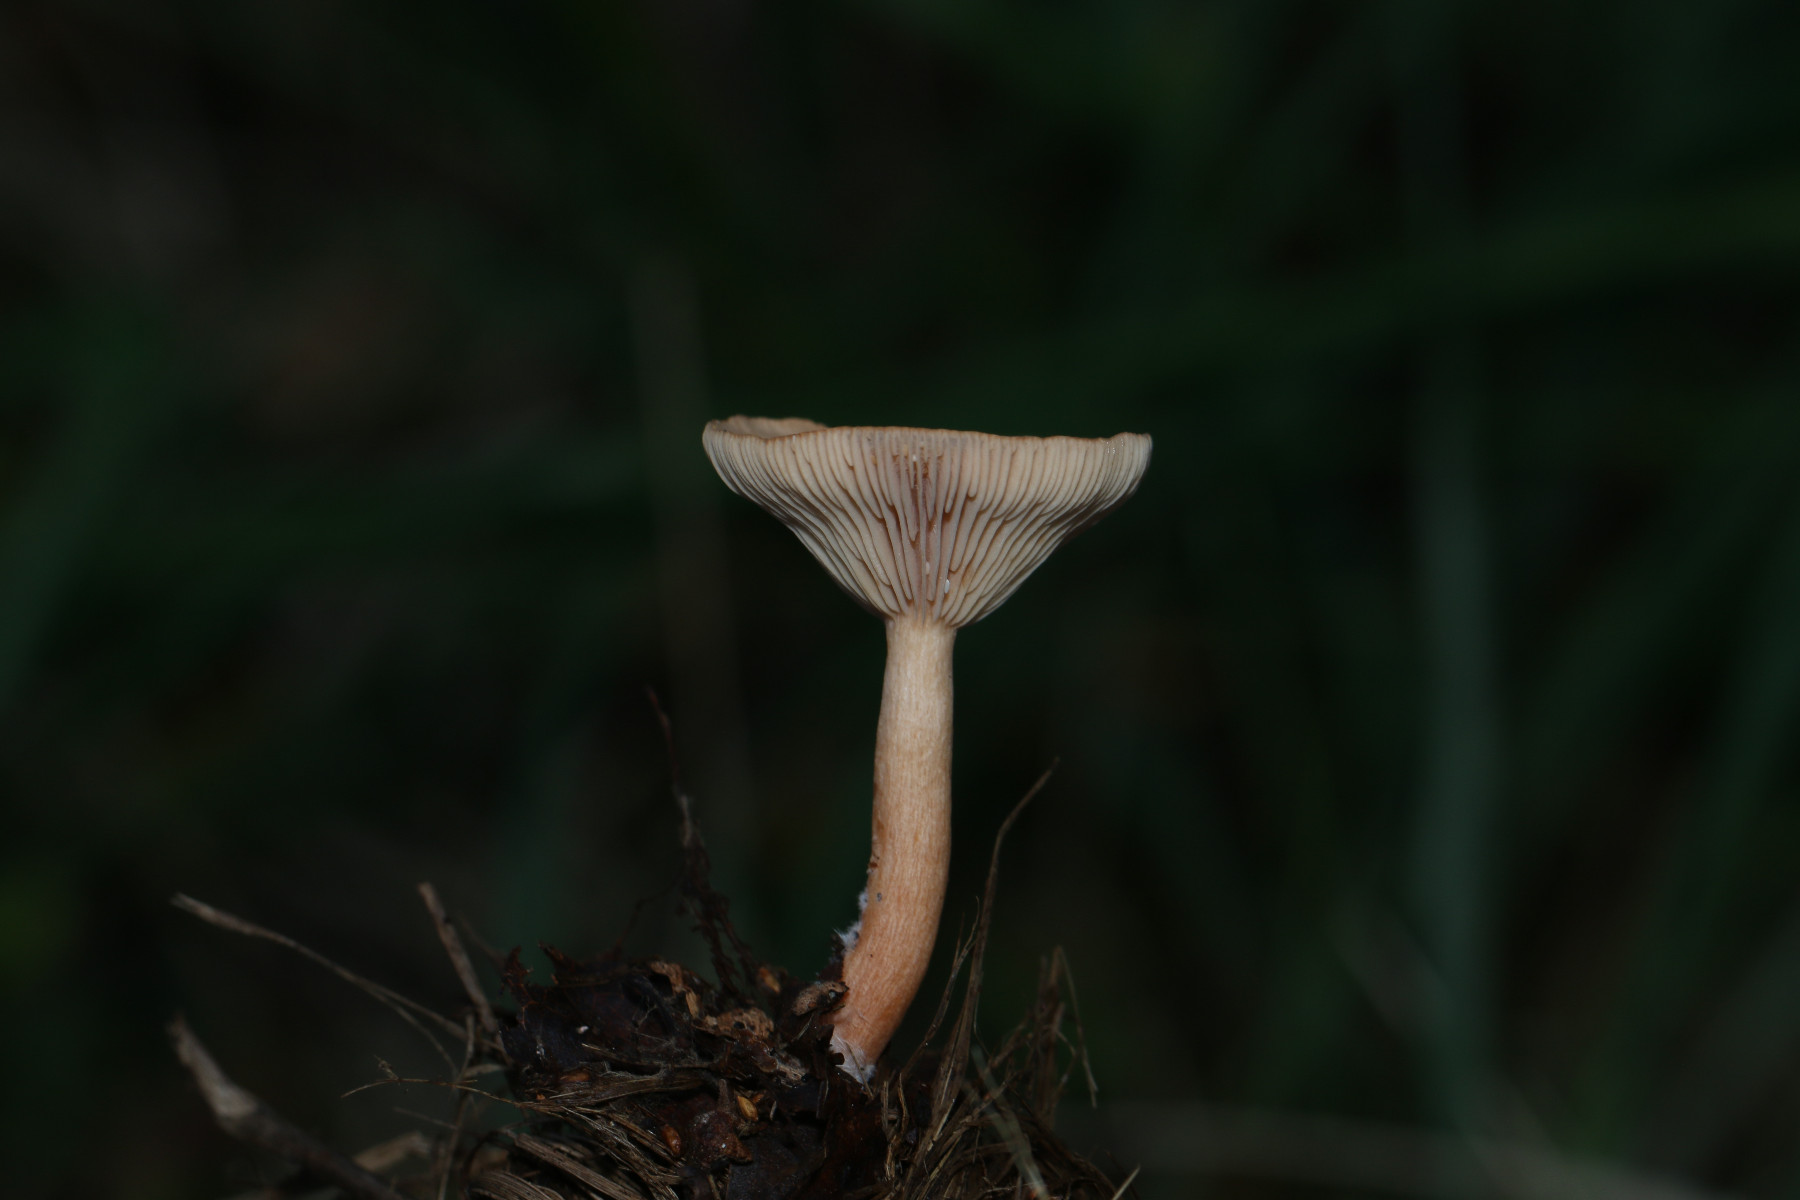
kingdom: Fungi
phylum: Basidiomycota
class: Agaricomycetes
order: Russulales
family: Russulaceae
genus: Lactarius
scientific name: Lactarius tabidus
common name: rynket mælkehat
